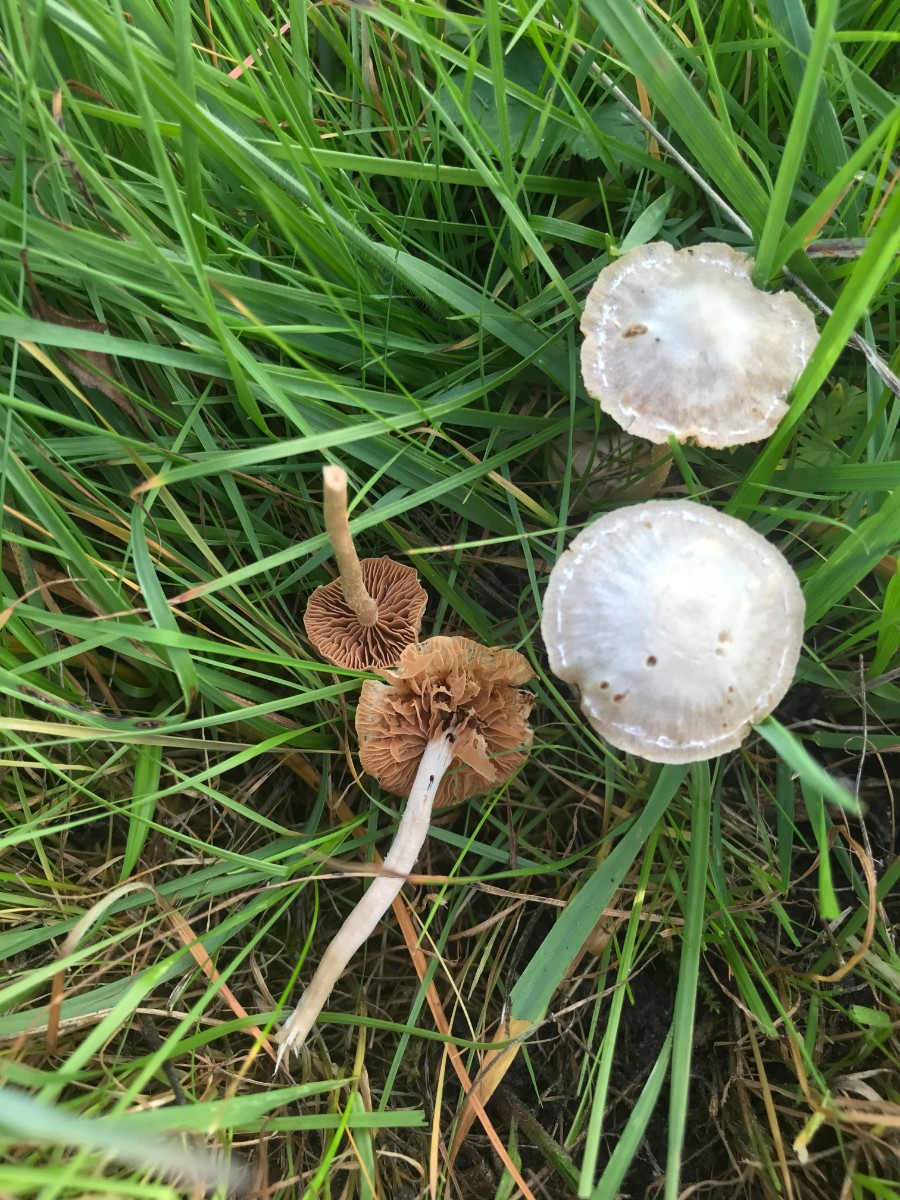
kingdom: Fungi
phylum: Basidiomycota
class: Agaricomycetes
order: Agaricales
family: Tubariaceae
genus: Tubaria
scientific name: Tubaria conspersa
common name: bleg fnughat
